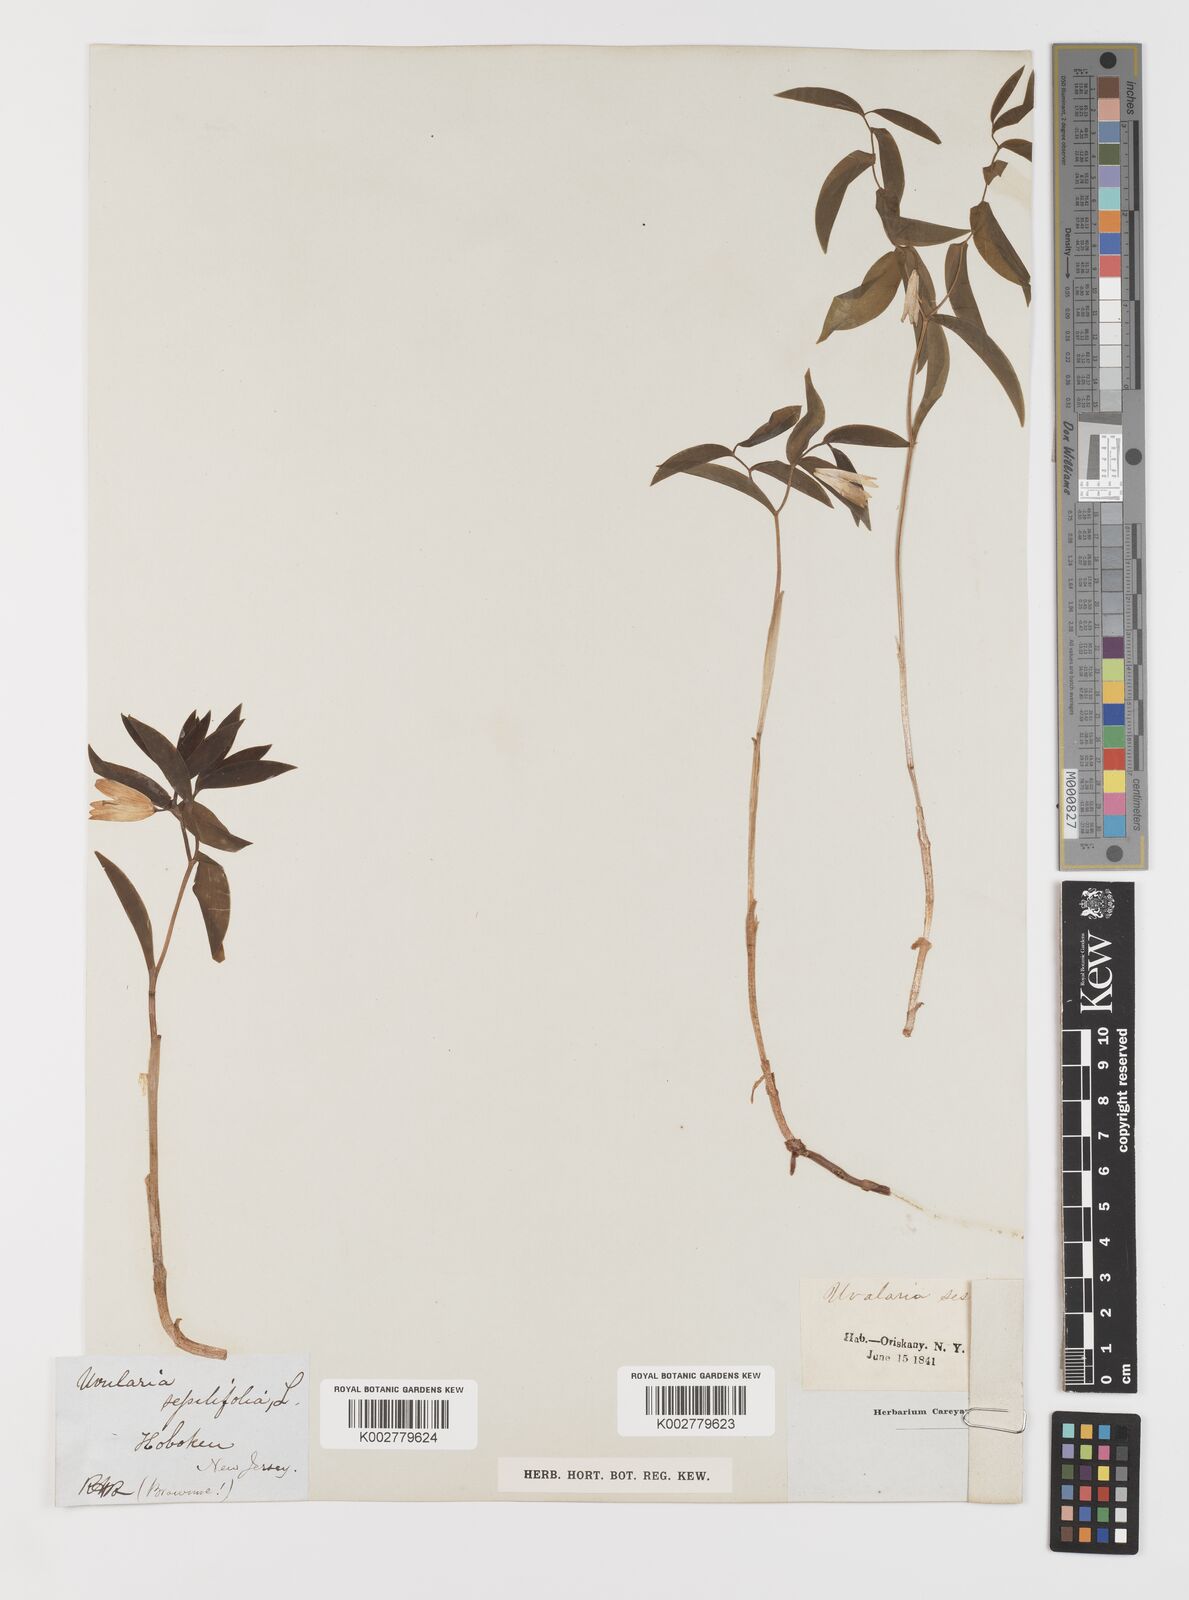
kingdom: Plantae
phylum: Tracheophyta
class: Liliopsida
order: Liliales
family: Colchicaceae
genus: Uvularia
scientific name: Uvularia sessilifolia
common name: Straw-lily
